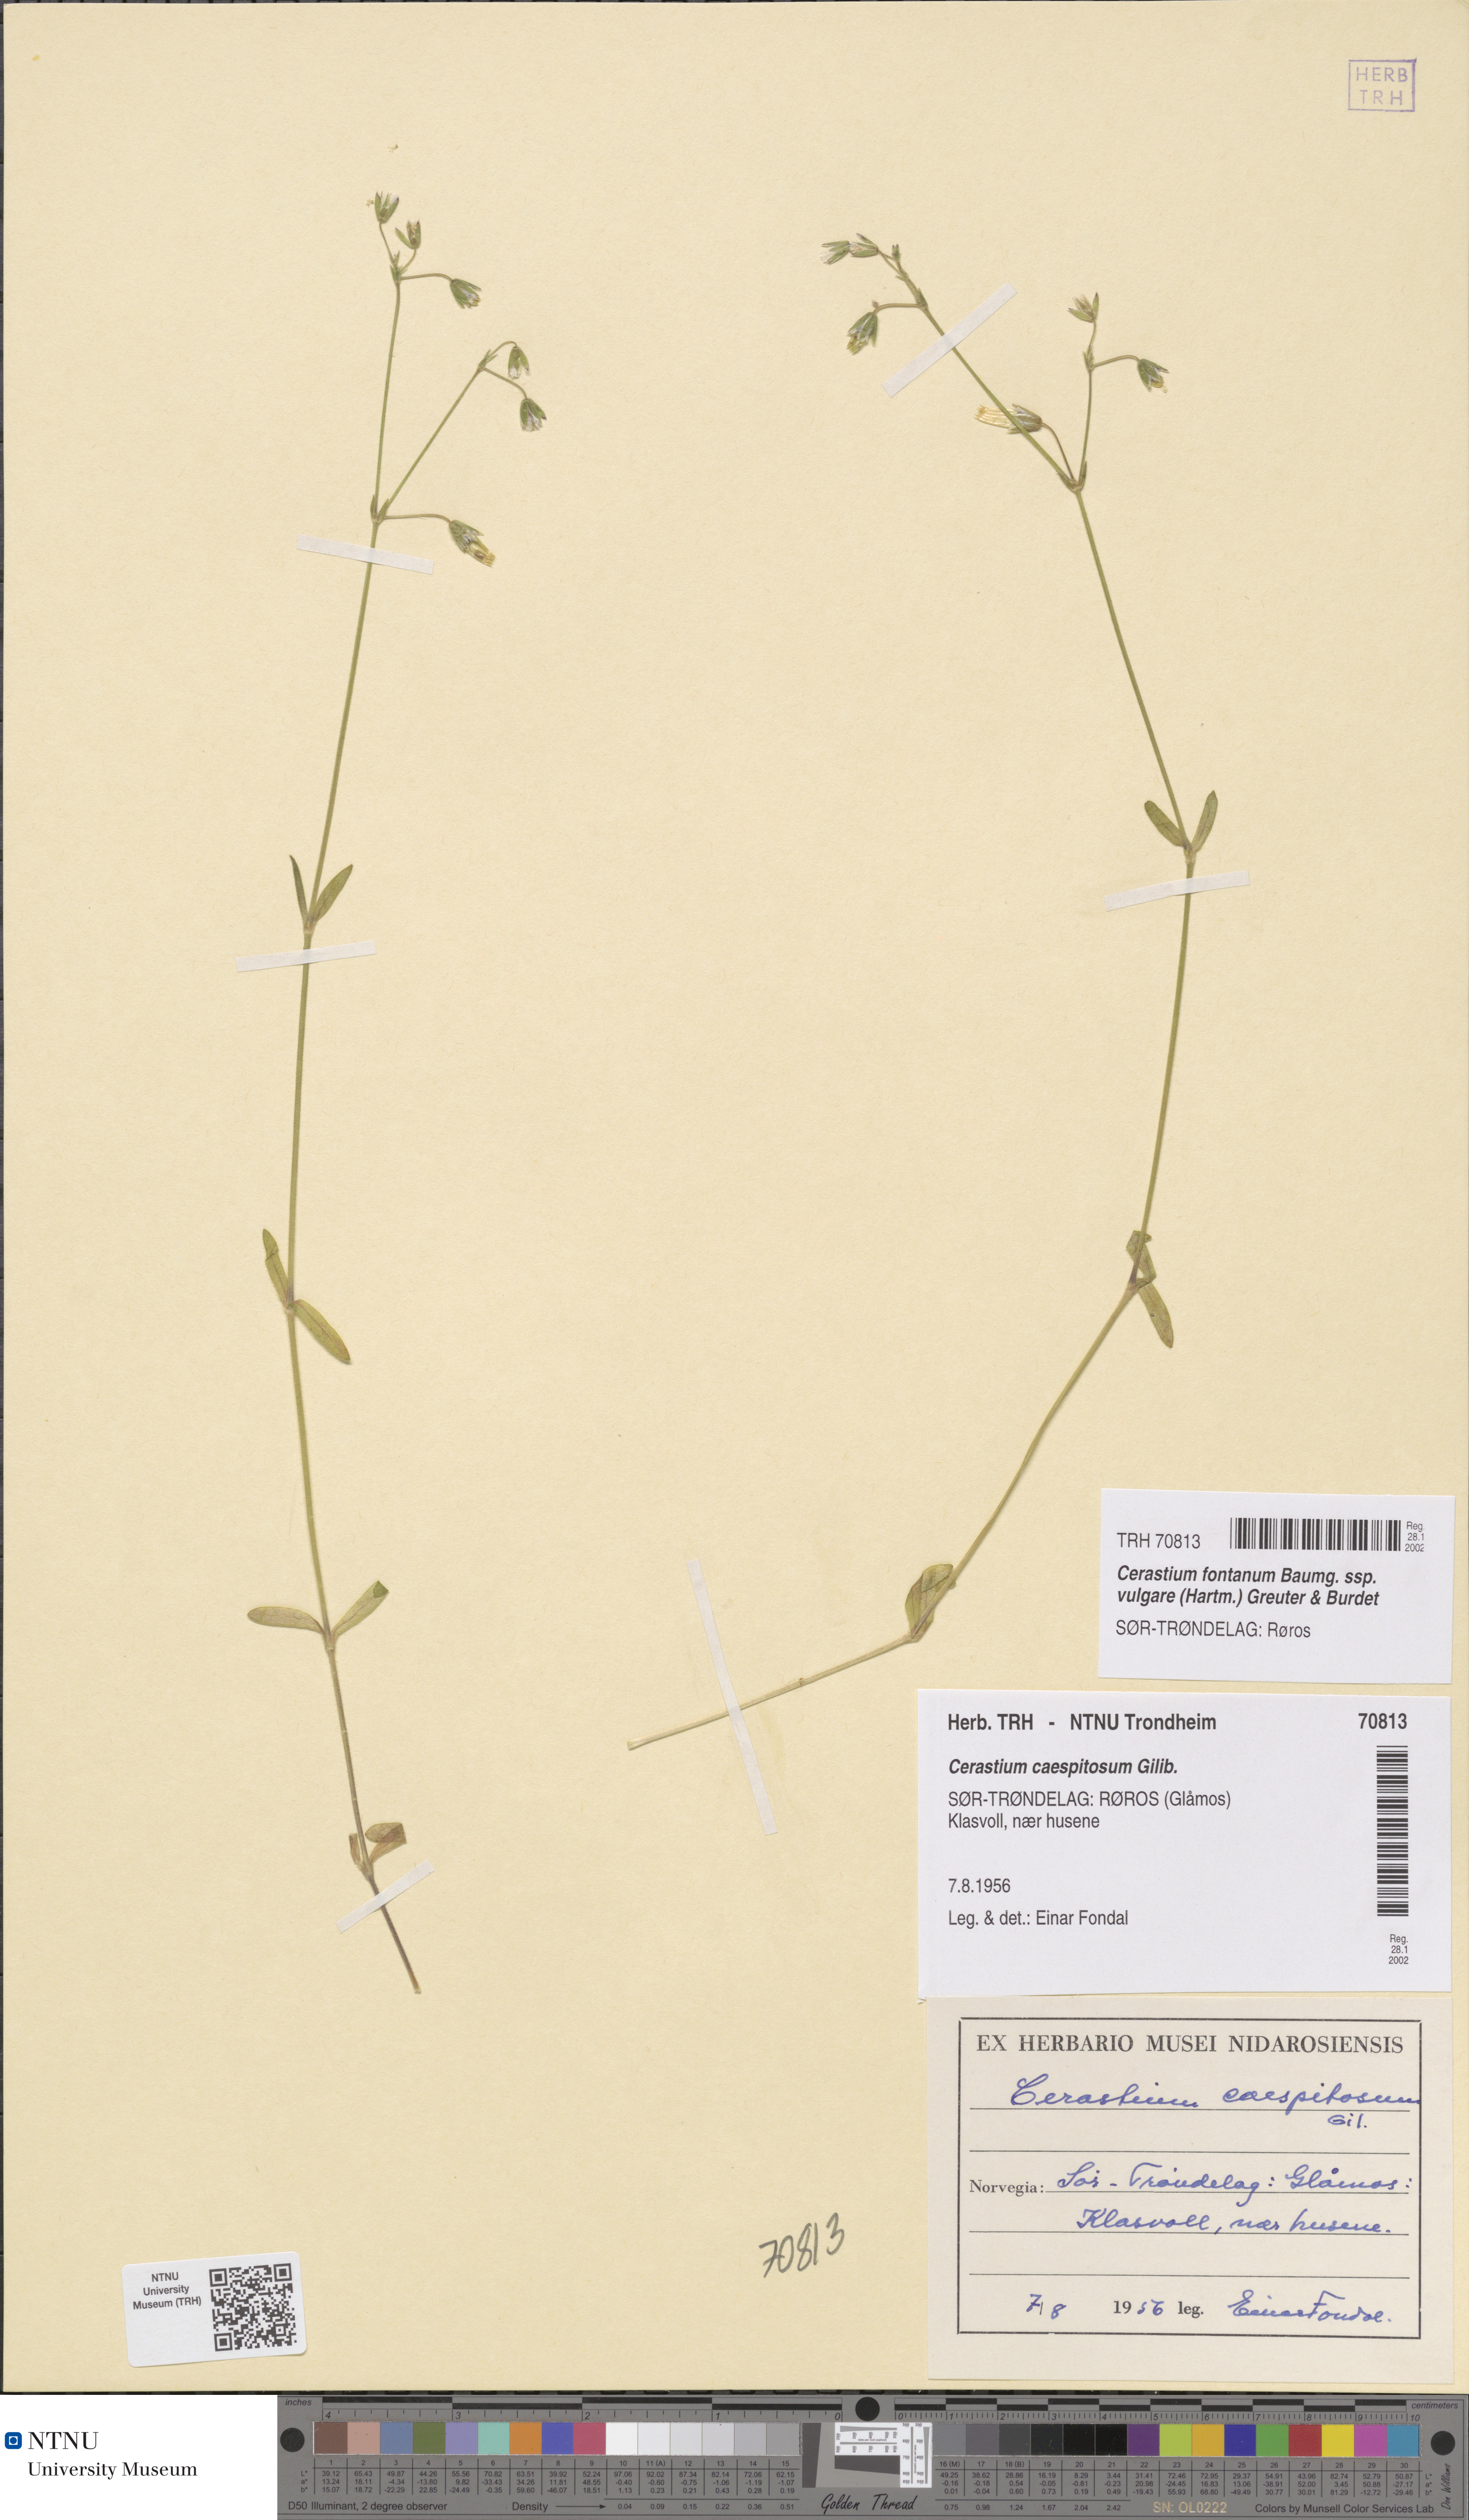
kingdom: Plantae
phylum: Tracheophyta
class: Magnoliopsida
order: Caryophyllales
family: Caryophyllaceae
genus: Cerastium
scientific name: Cerastium holosteoides
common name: Big chickweed
